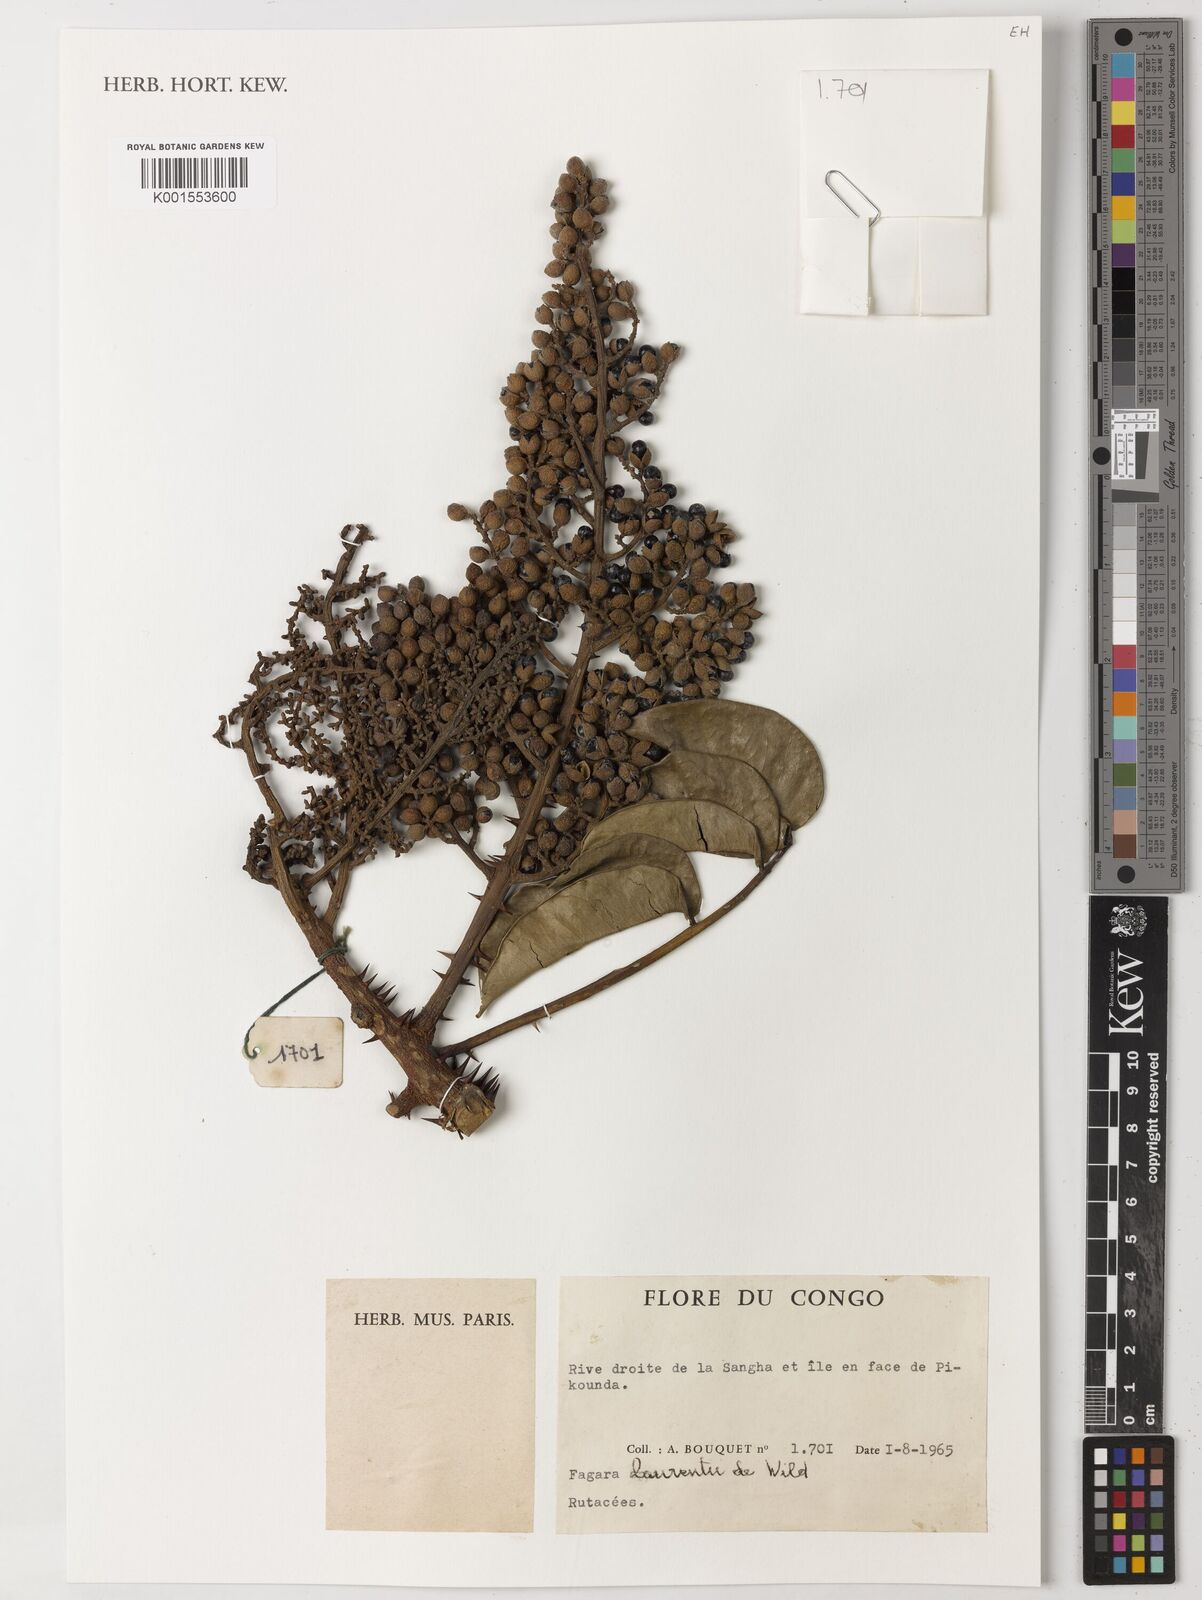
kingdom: Plantae
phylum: Tracheophyta
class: Magnoliopsida
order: Sapindales
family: Rutaceae
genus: Zanthoxylum
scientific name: Zanthoxylum laurentii
